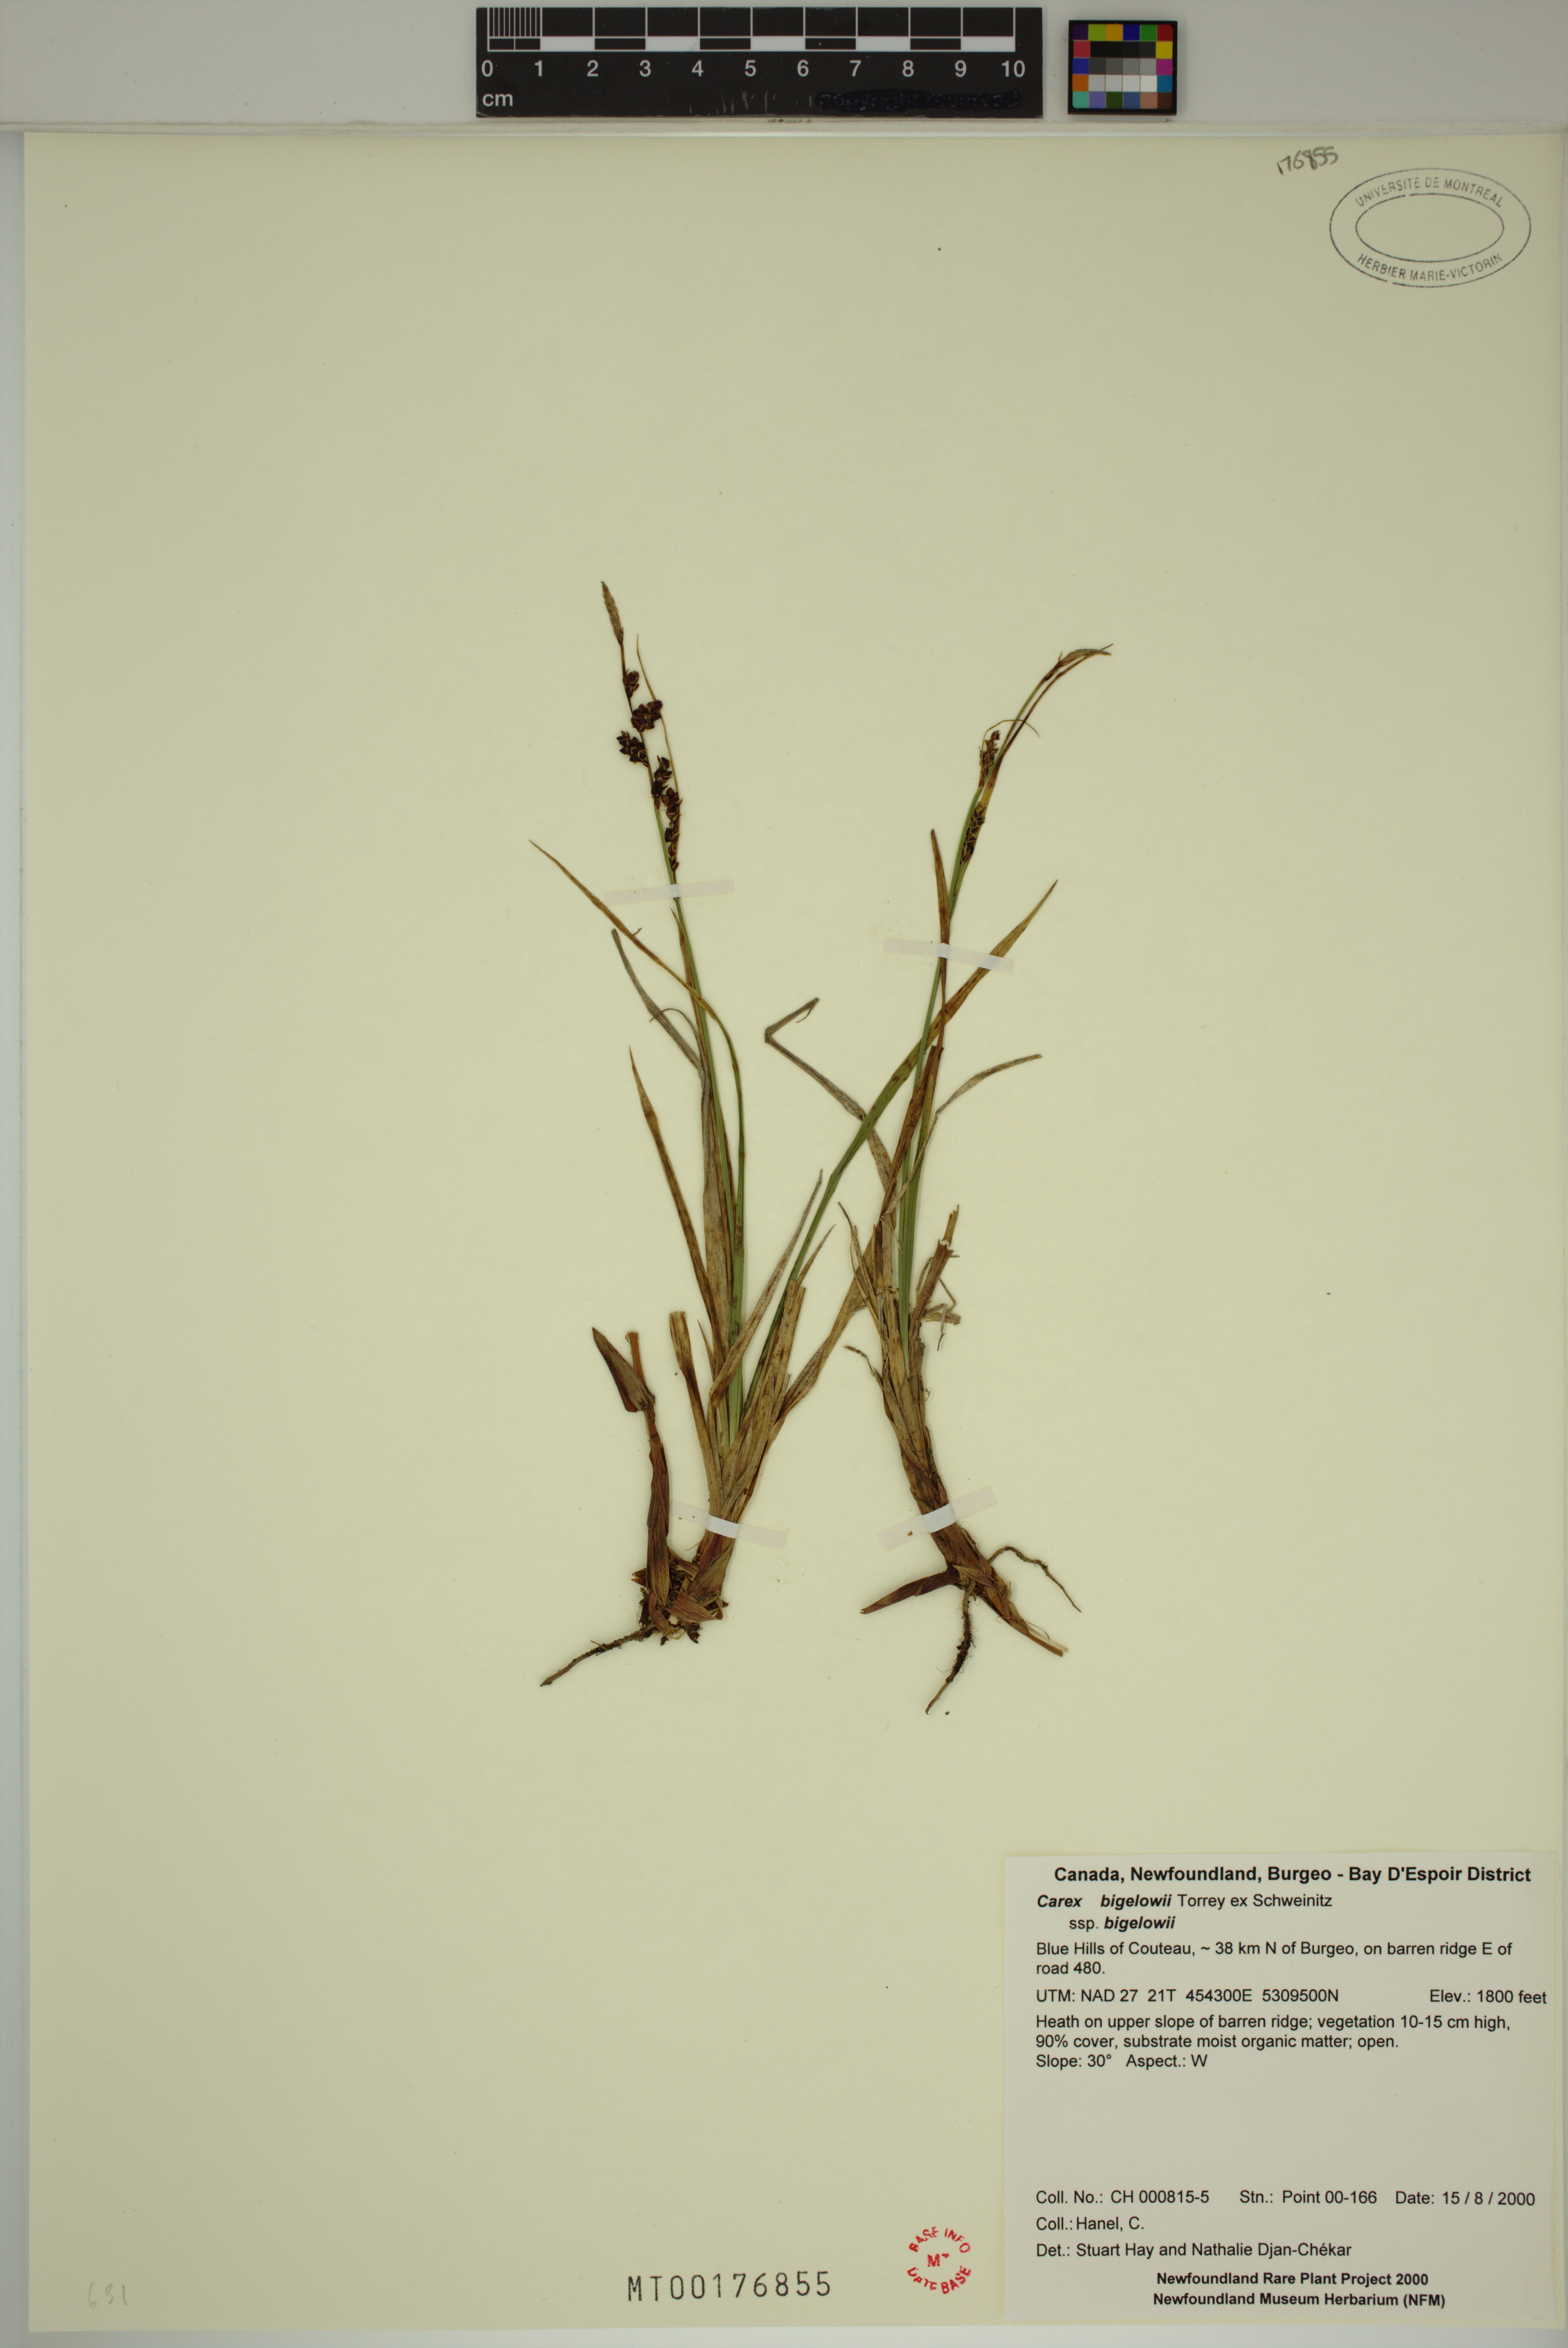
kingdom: Plantae
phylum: Tracheophyta
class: Liliopsida
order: Poales
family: Cyperaceae
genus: Carex
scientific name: Carex bigelowii
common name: Stiff sedge
